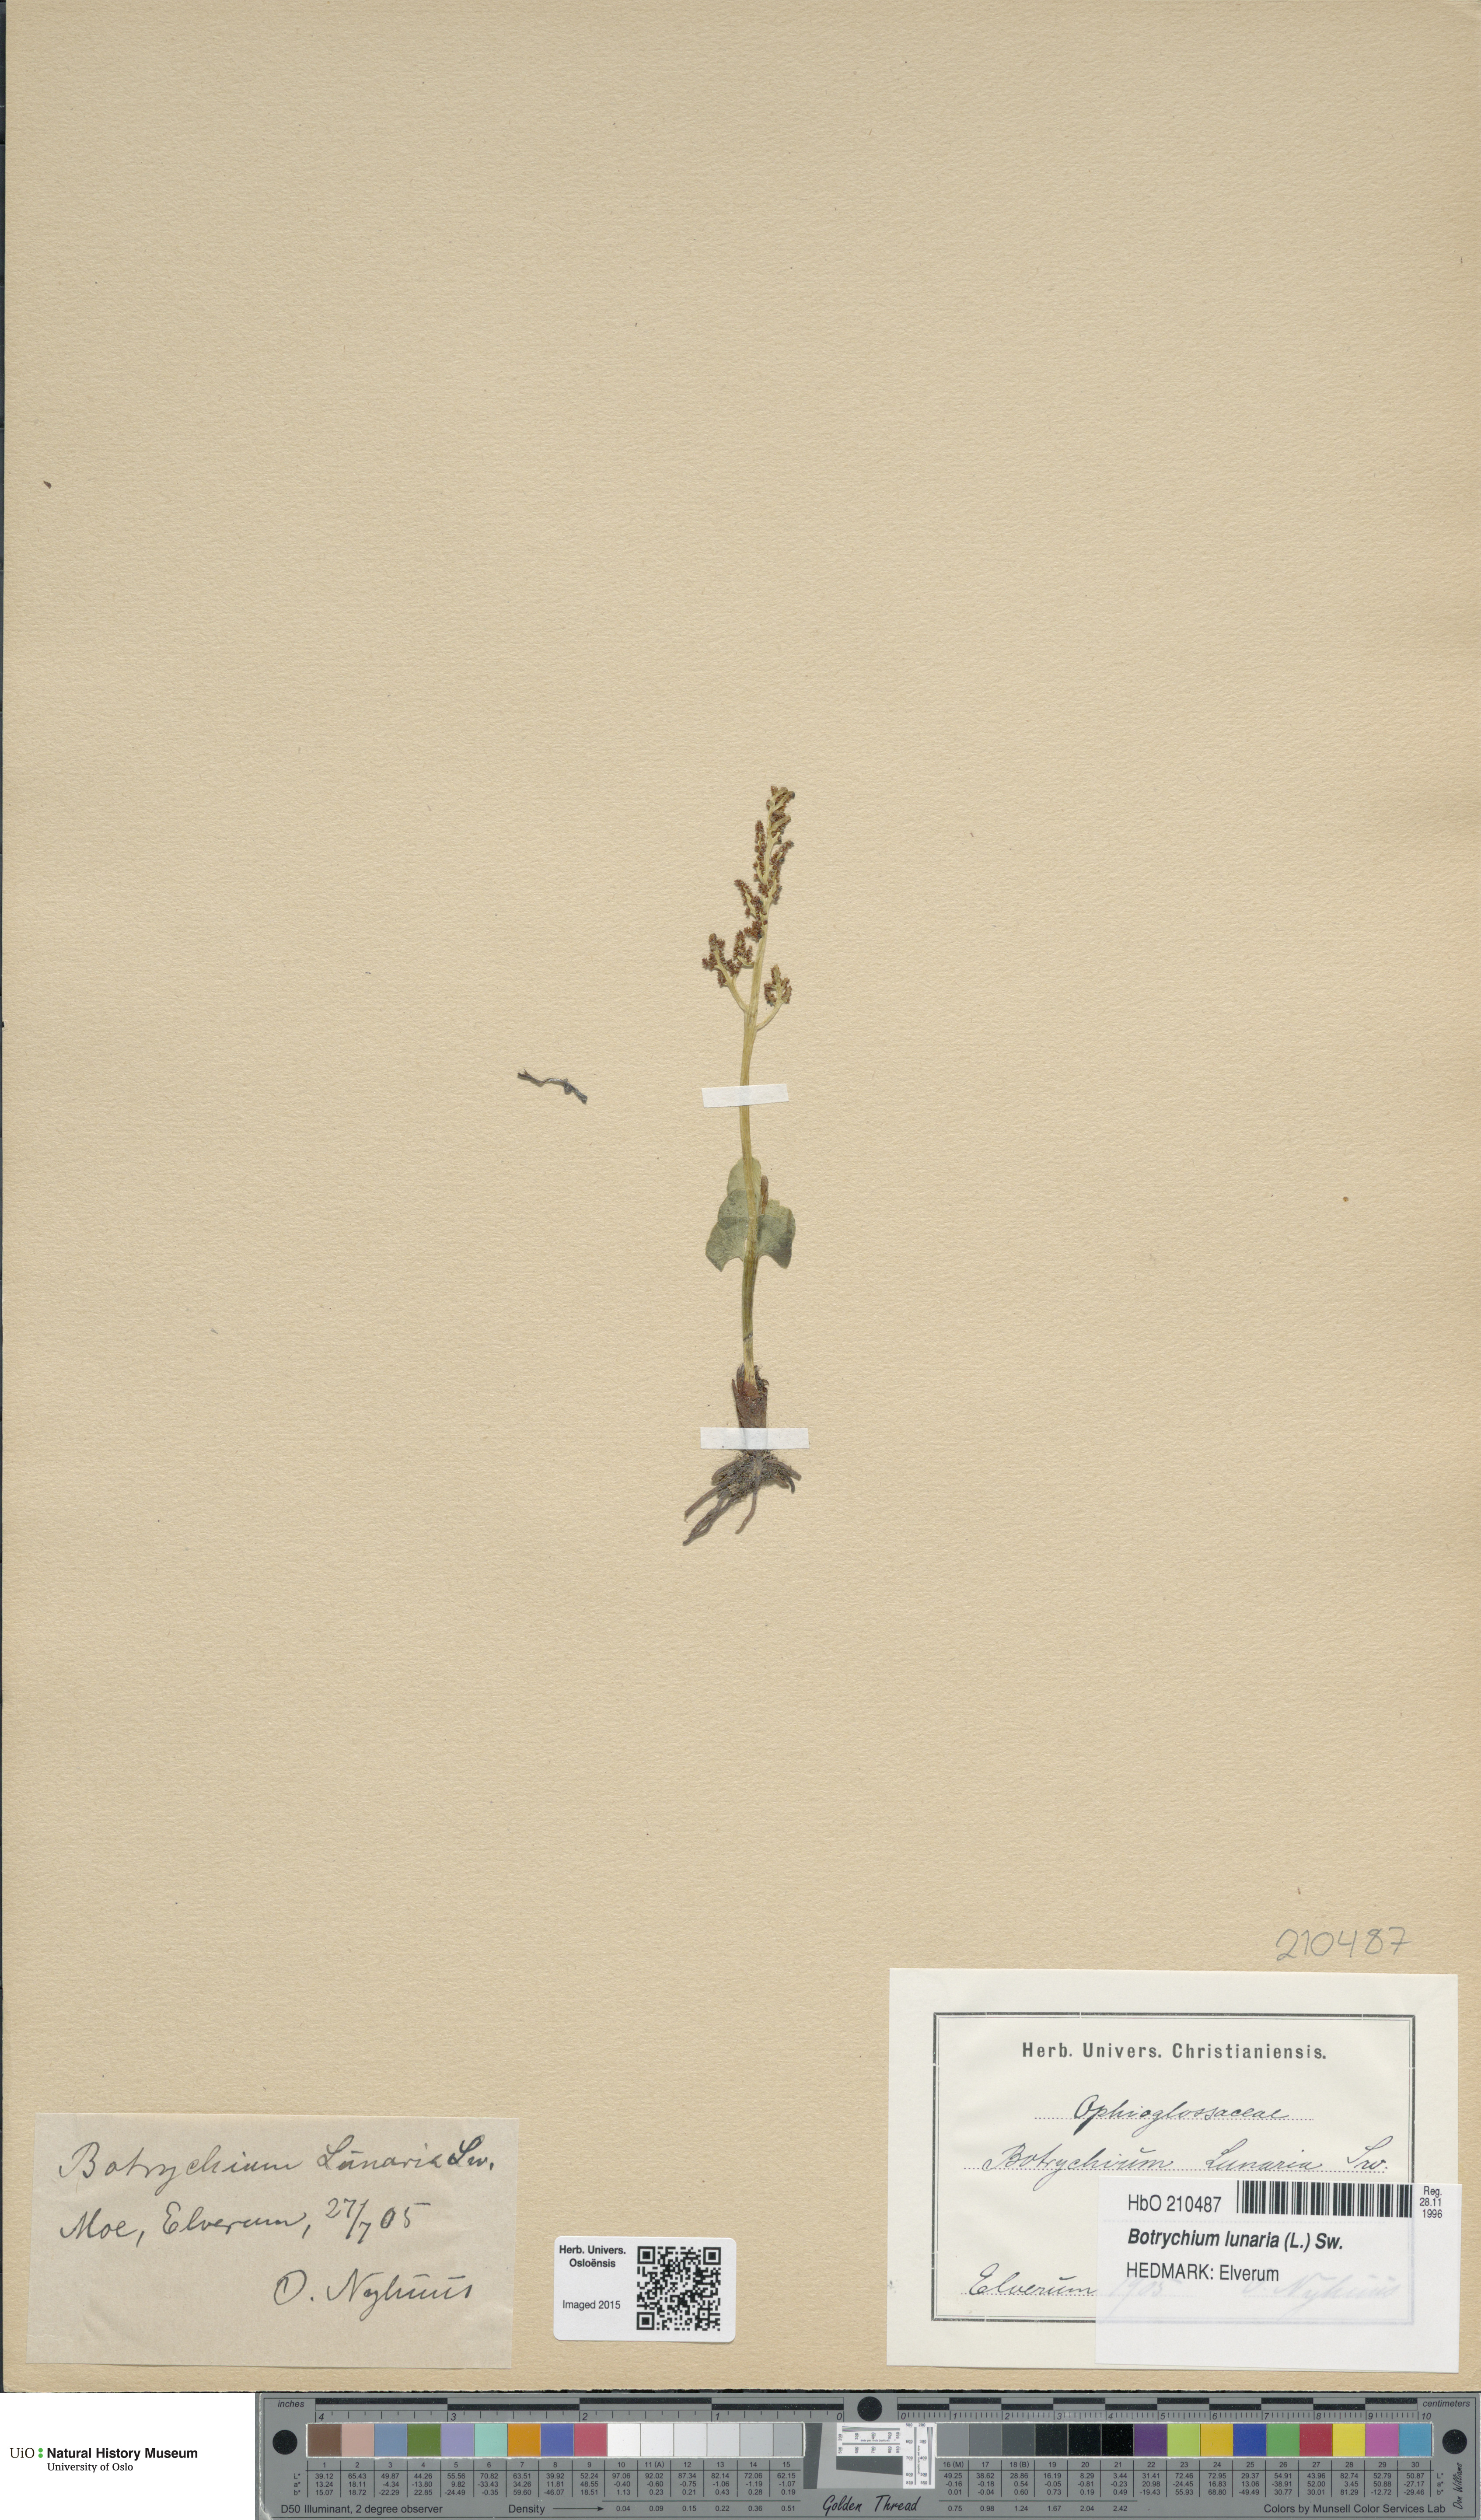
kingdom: Plantae
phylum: Tracheophyta
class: Polypodiopsida
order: Ophioglossales
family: Ophioglossaceae
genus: Botrychium
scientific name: Botrychium lunaria
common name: Moonwort
